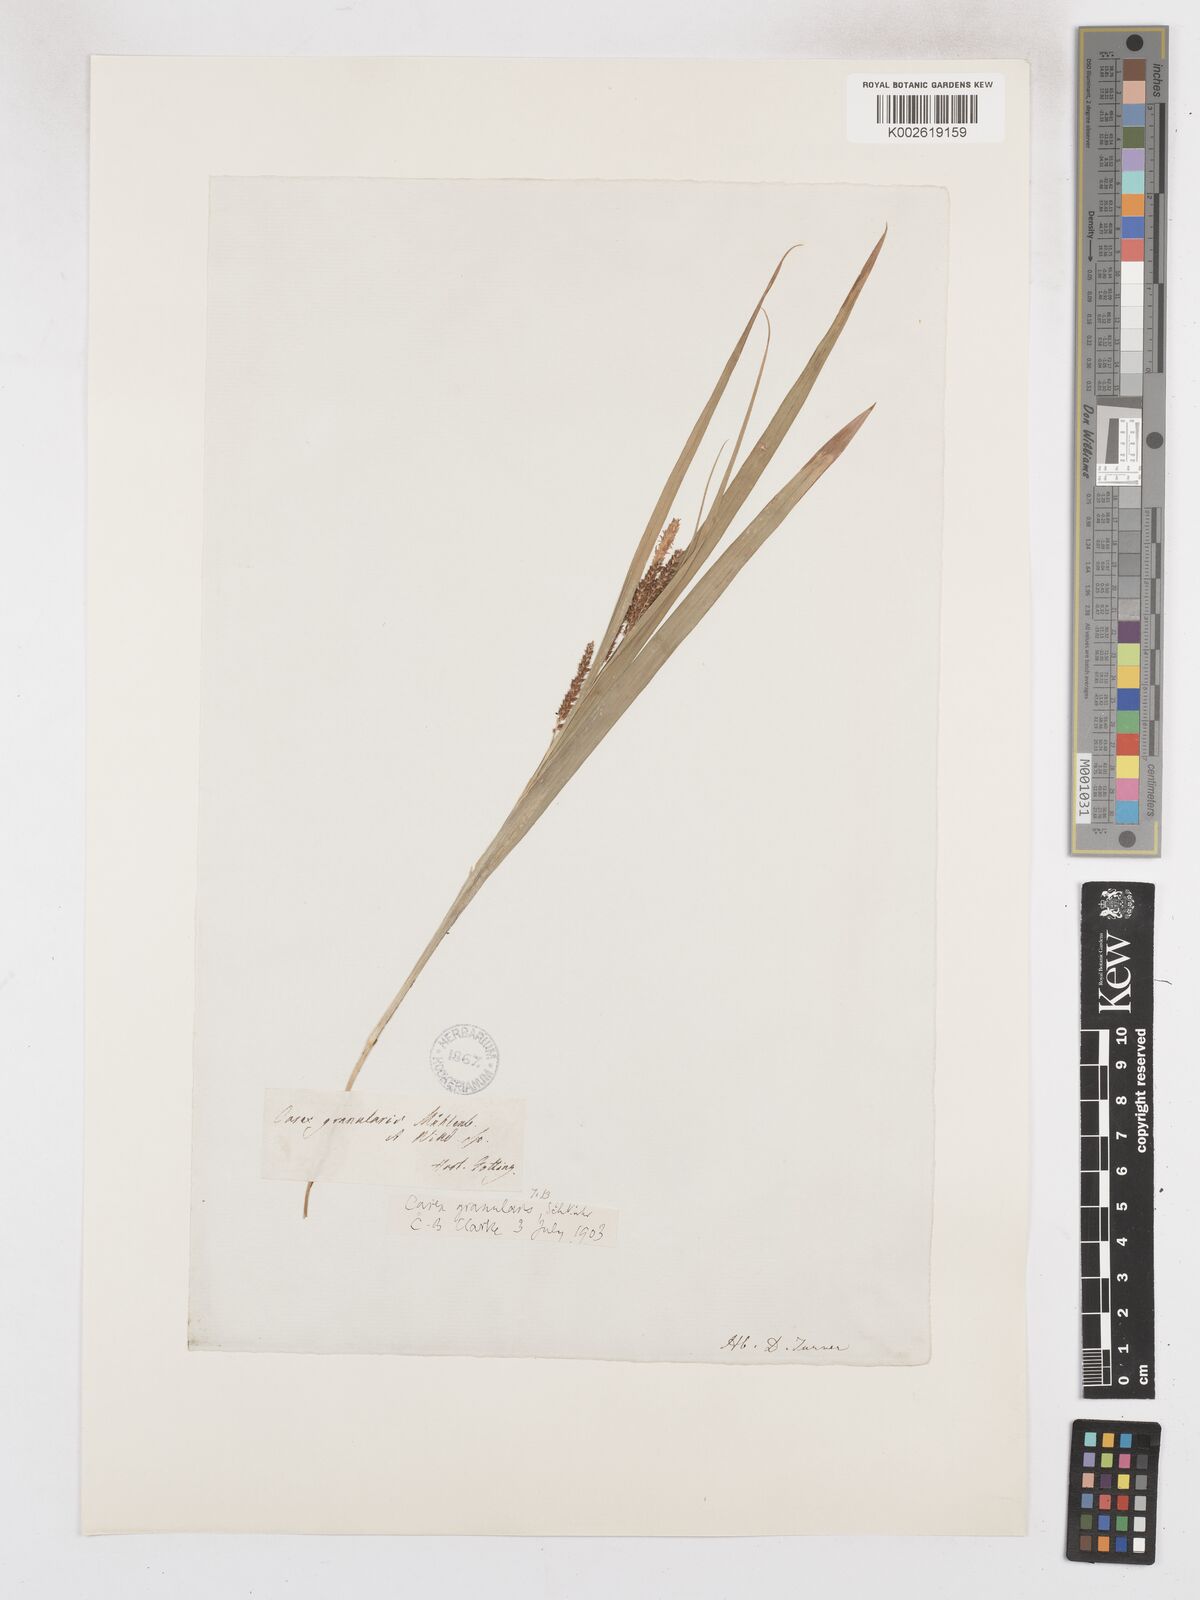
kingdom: Plantae
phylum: Tracheophyta
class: Liliopsida
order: Poales
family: Cyperaceae
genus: Carex
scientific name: Carex granularis
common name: Granular sedge
